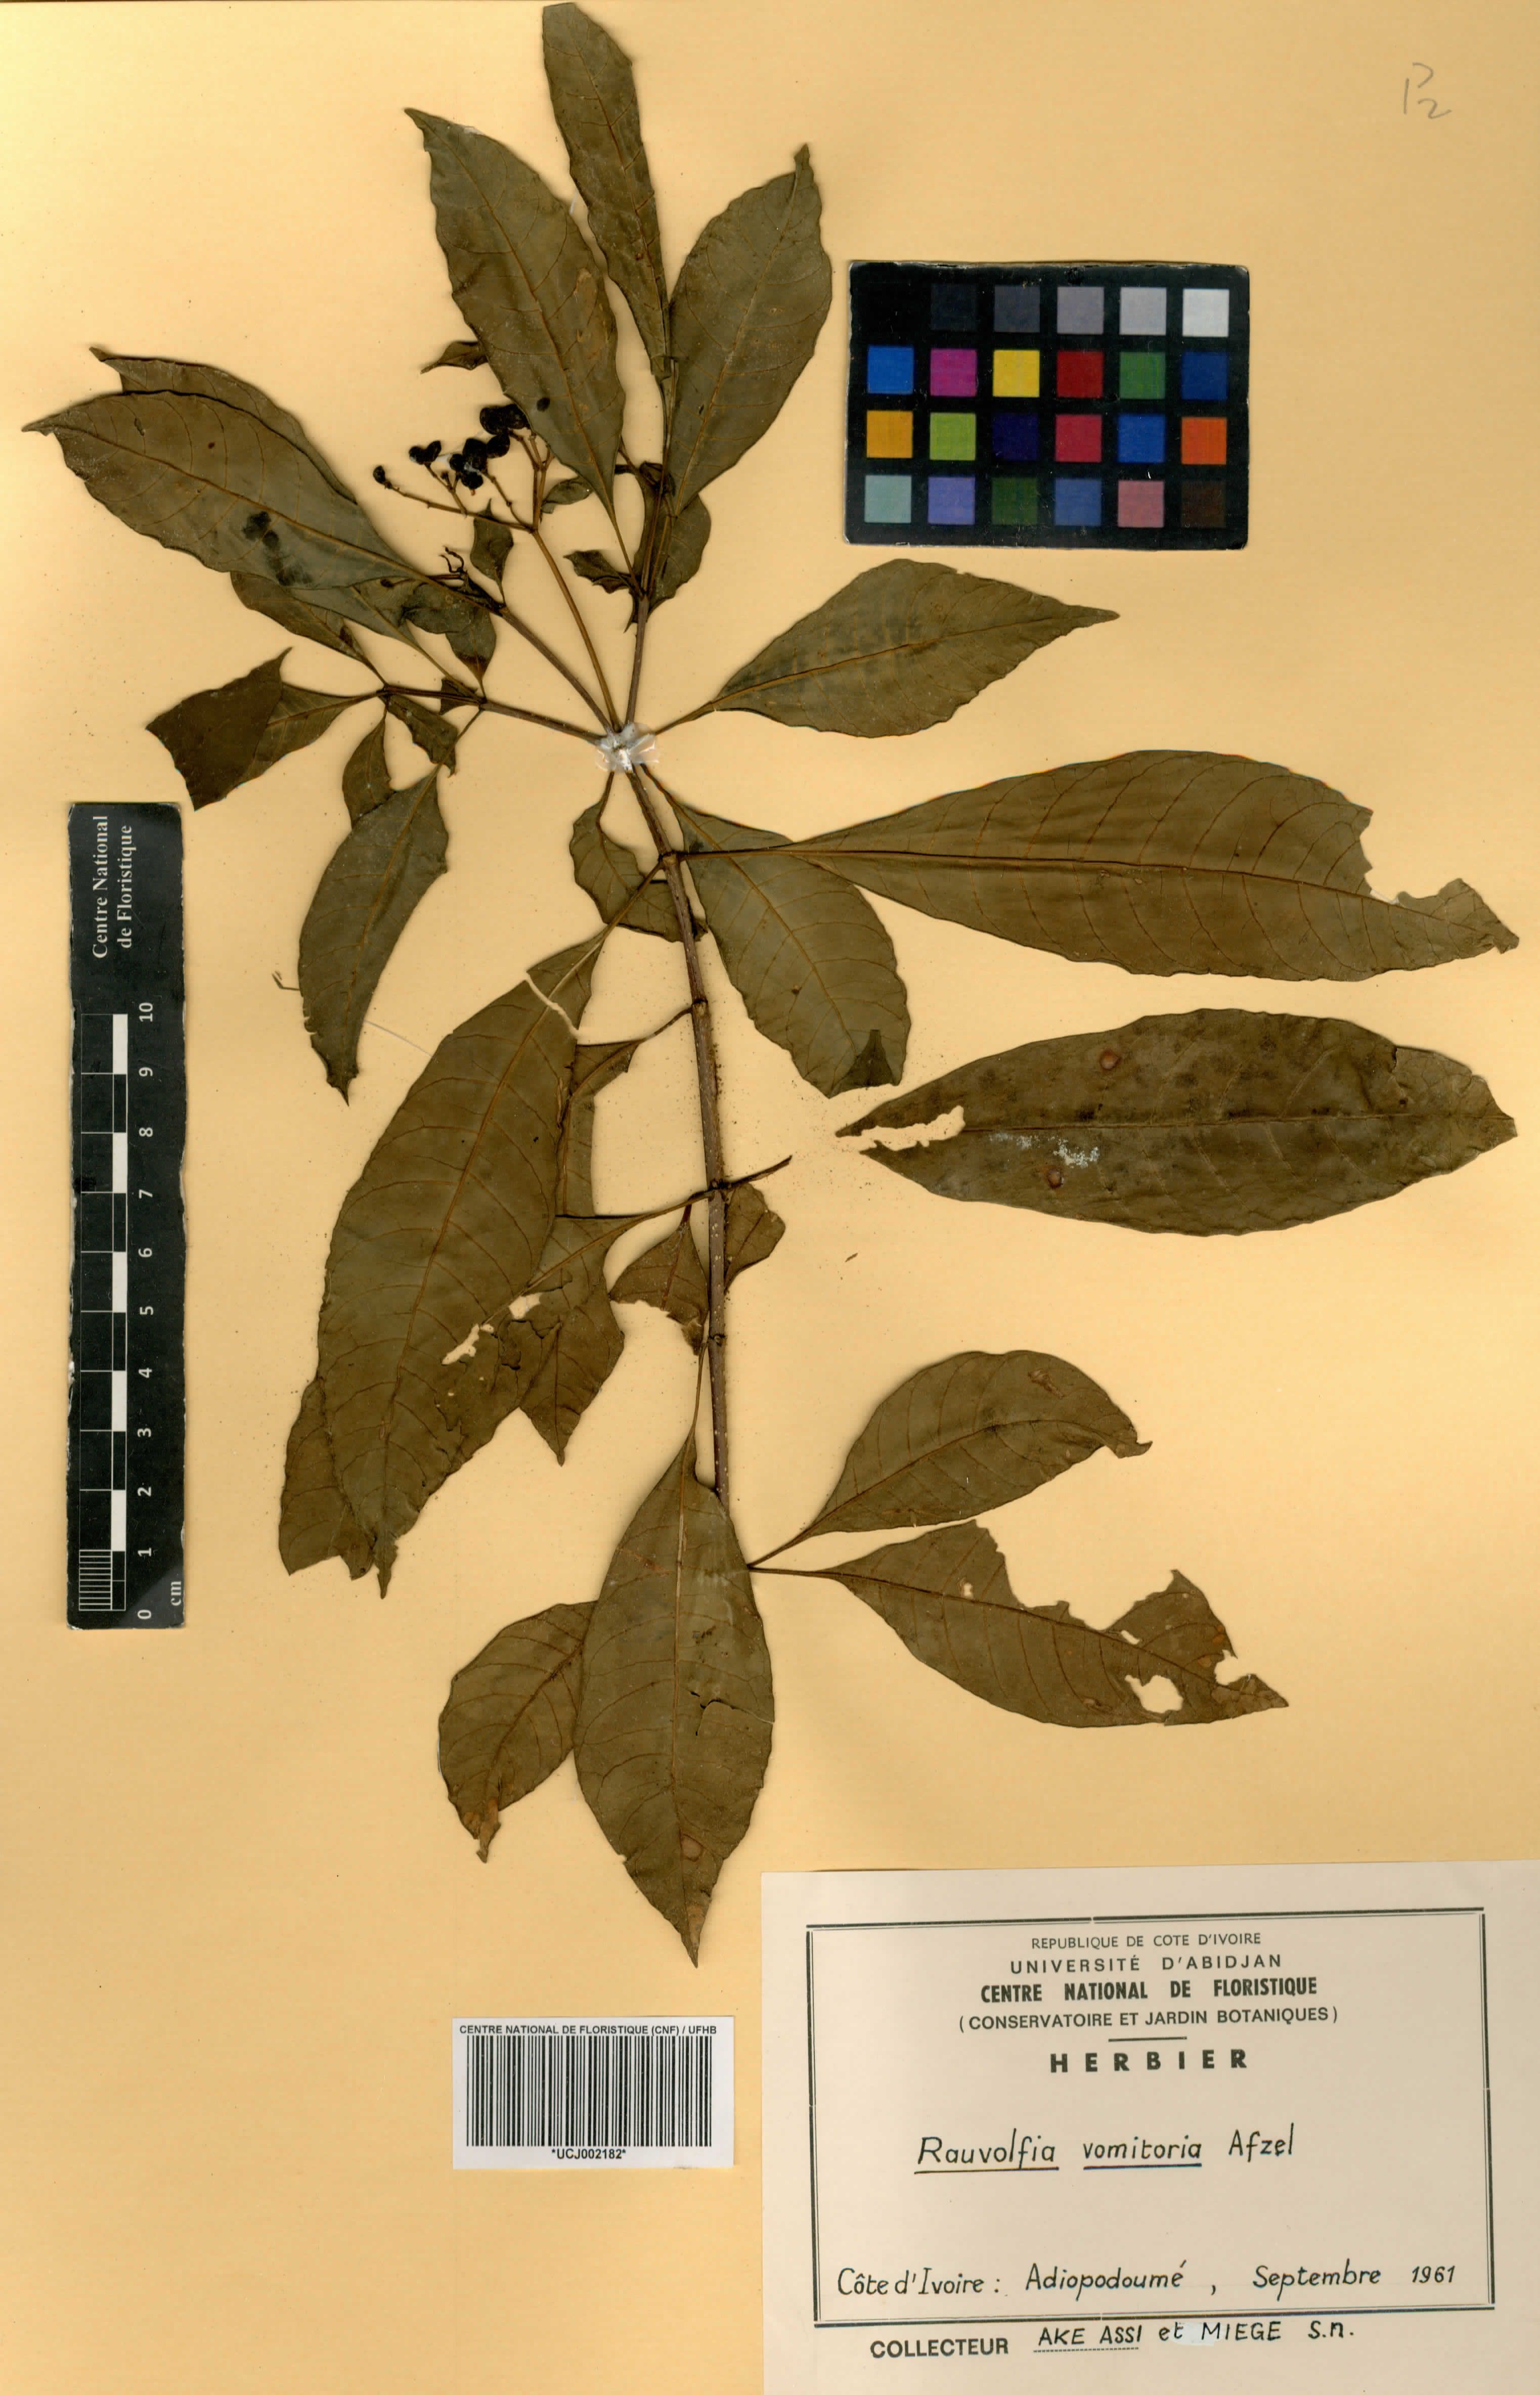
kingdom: Plantae
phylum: Tracheophyta
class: Magnoliopsida
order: Gentianales
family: Apocynaceae
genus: Rauvolfia
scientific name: Rauvolfia vomitoria
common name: Poison devil's-pepper
